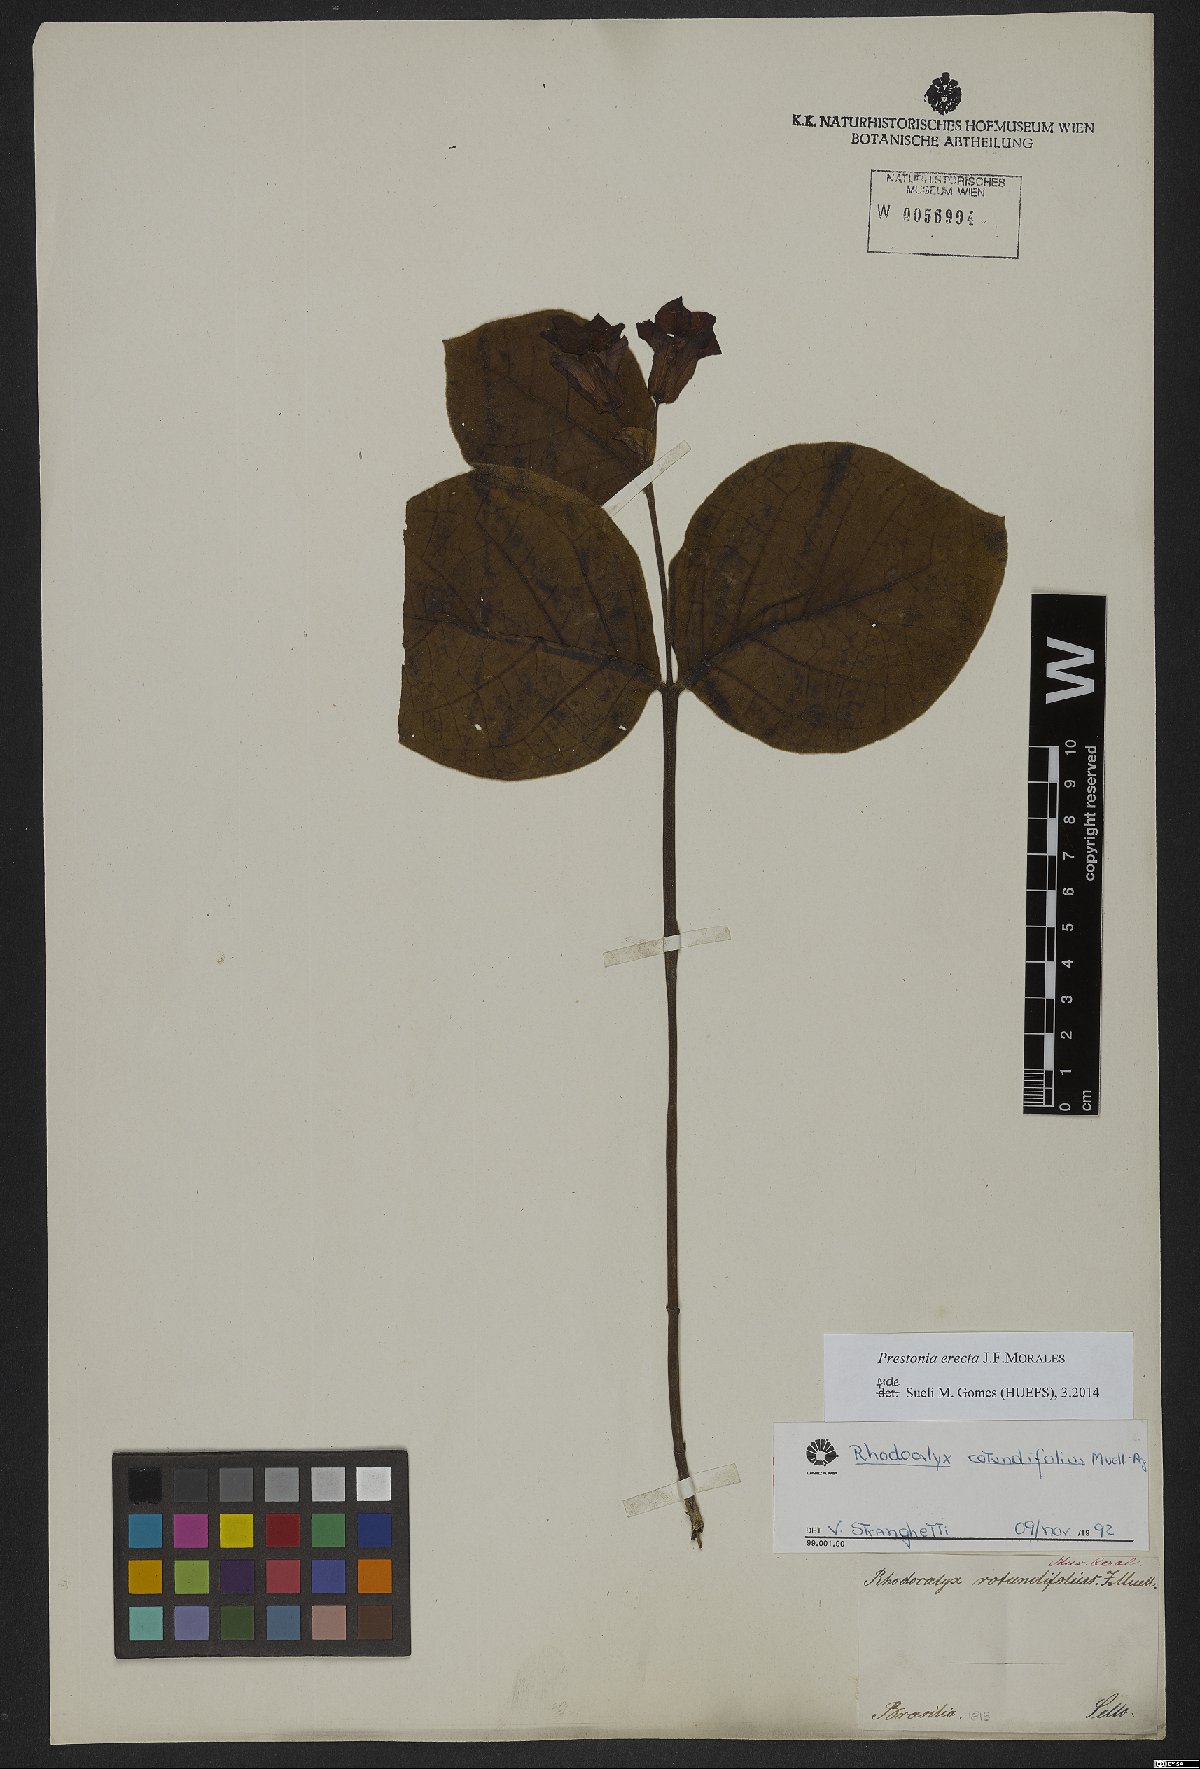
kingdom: Plantae
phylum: Tracheophyta
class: Magnoliopsida
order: Gentianales
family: Apocynaceae
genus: Prestonia
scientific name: Prestonia erecta
